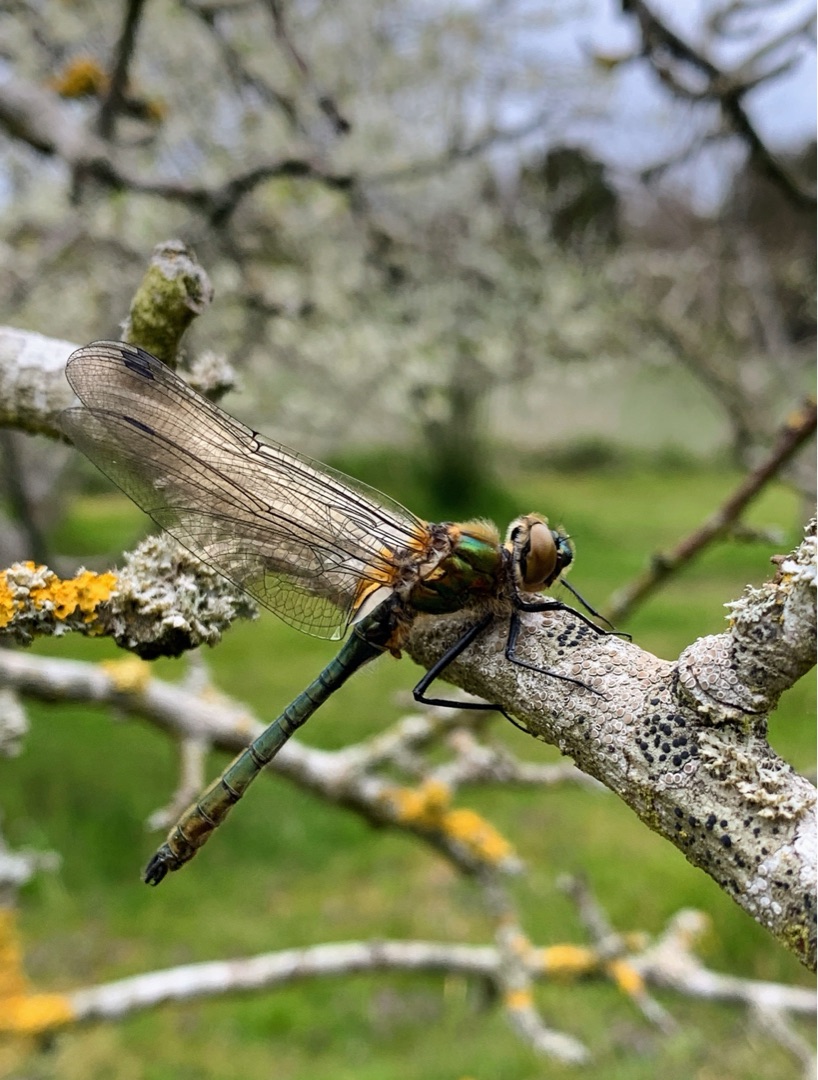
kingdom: Animalia
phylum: Arthropoda
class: Insecta
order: Odonata
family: Corduliidae
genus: Cordulia
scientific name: Cordulia aenea
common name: Grøn smaragdlibel
